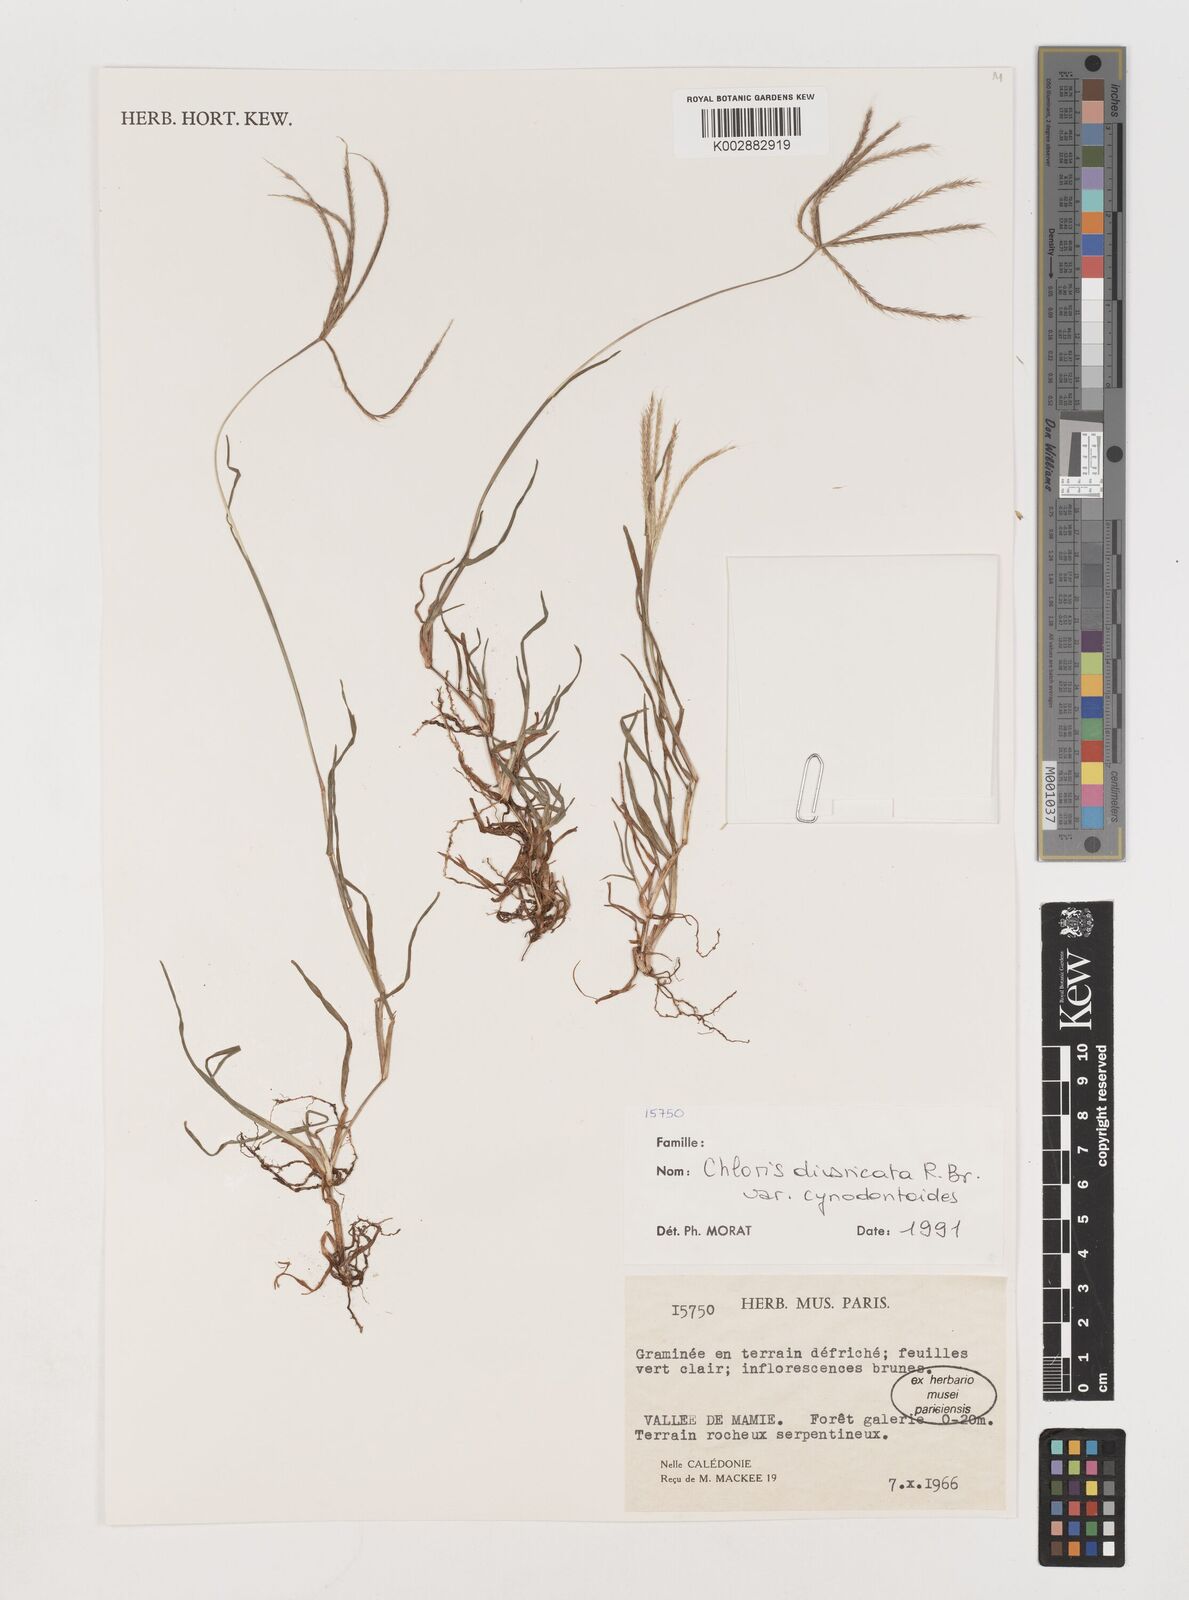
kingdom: Plantae
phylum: Tracheophyta
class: Liliopsida
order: Poales
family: Poaceae
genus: Chloris
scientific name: Chloris divaricata
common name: Spreading windmill grass
